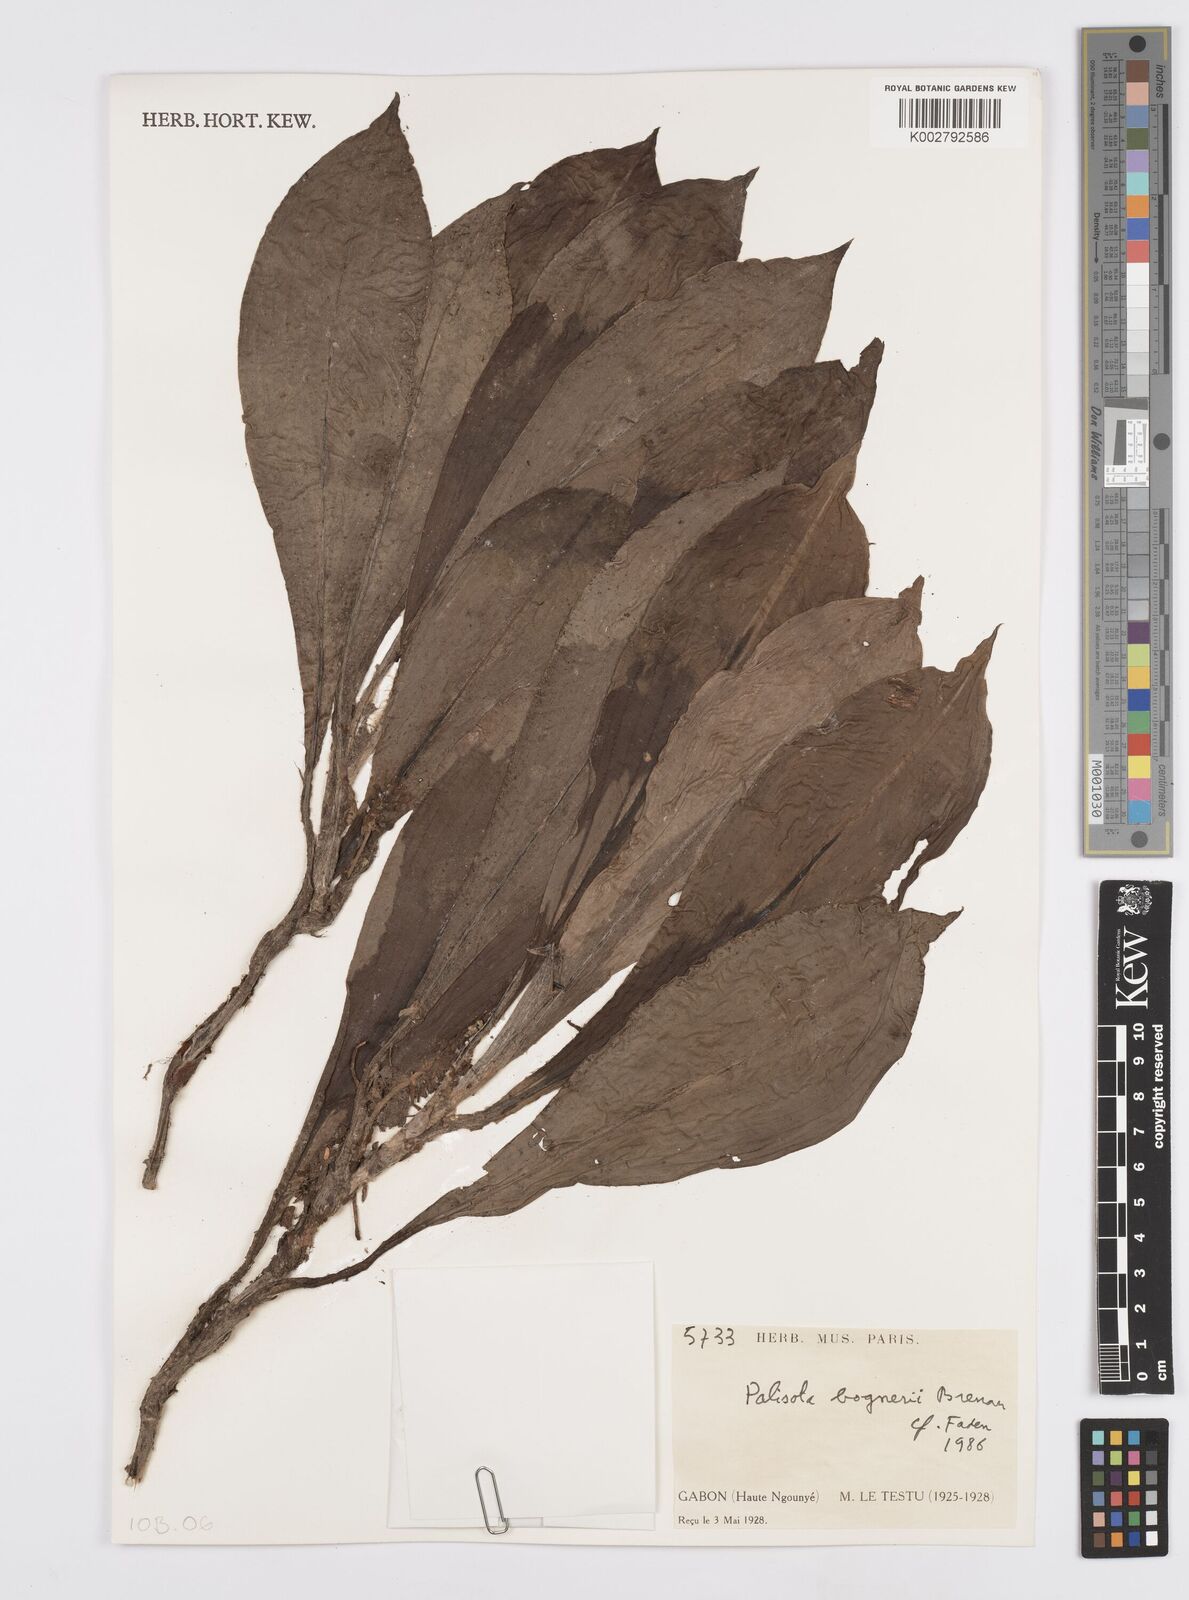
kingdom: Plantae
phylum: Tracheophyta
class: Liliopsida
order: Commelinales
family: Commelinaceae
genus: Palisota
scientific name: Palisota bogneri
